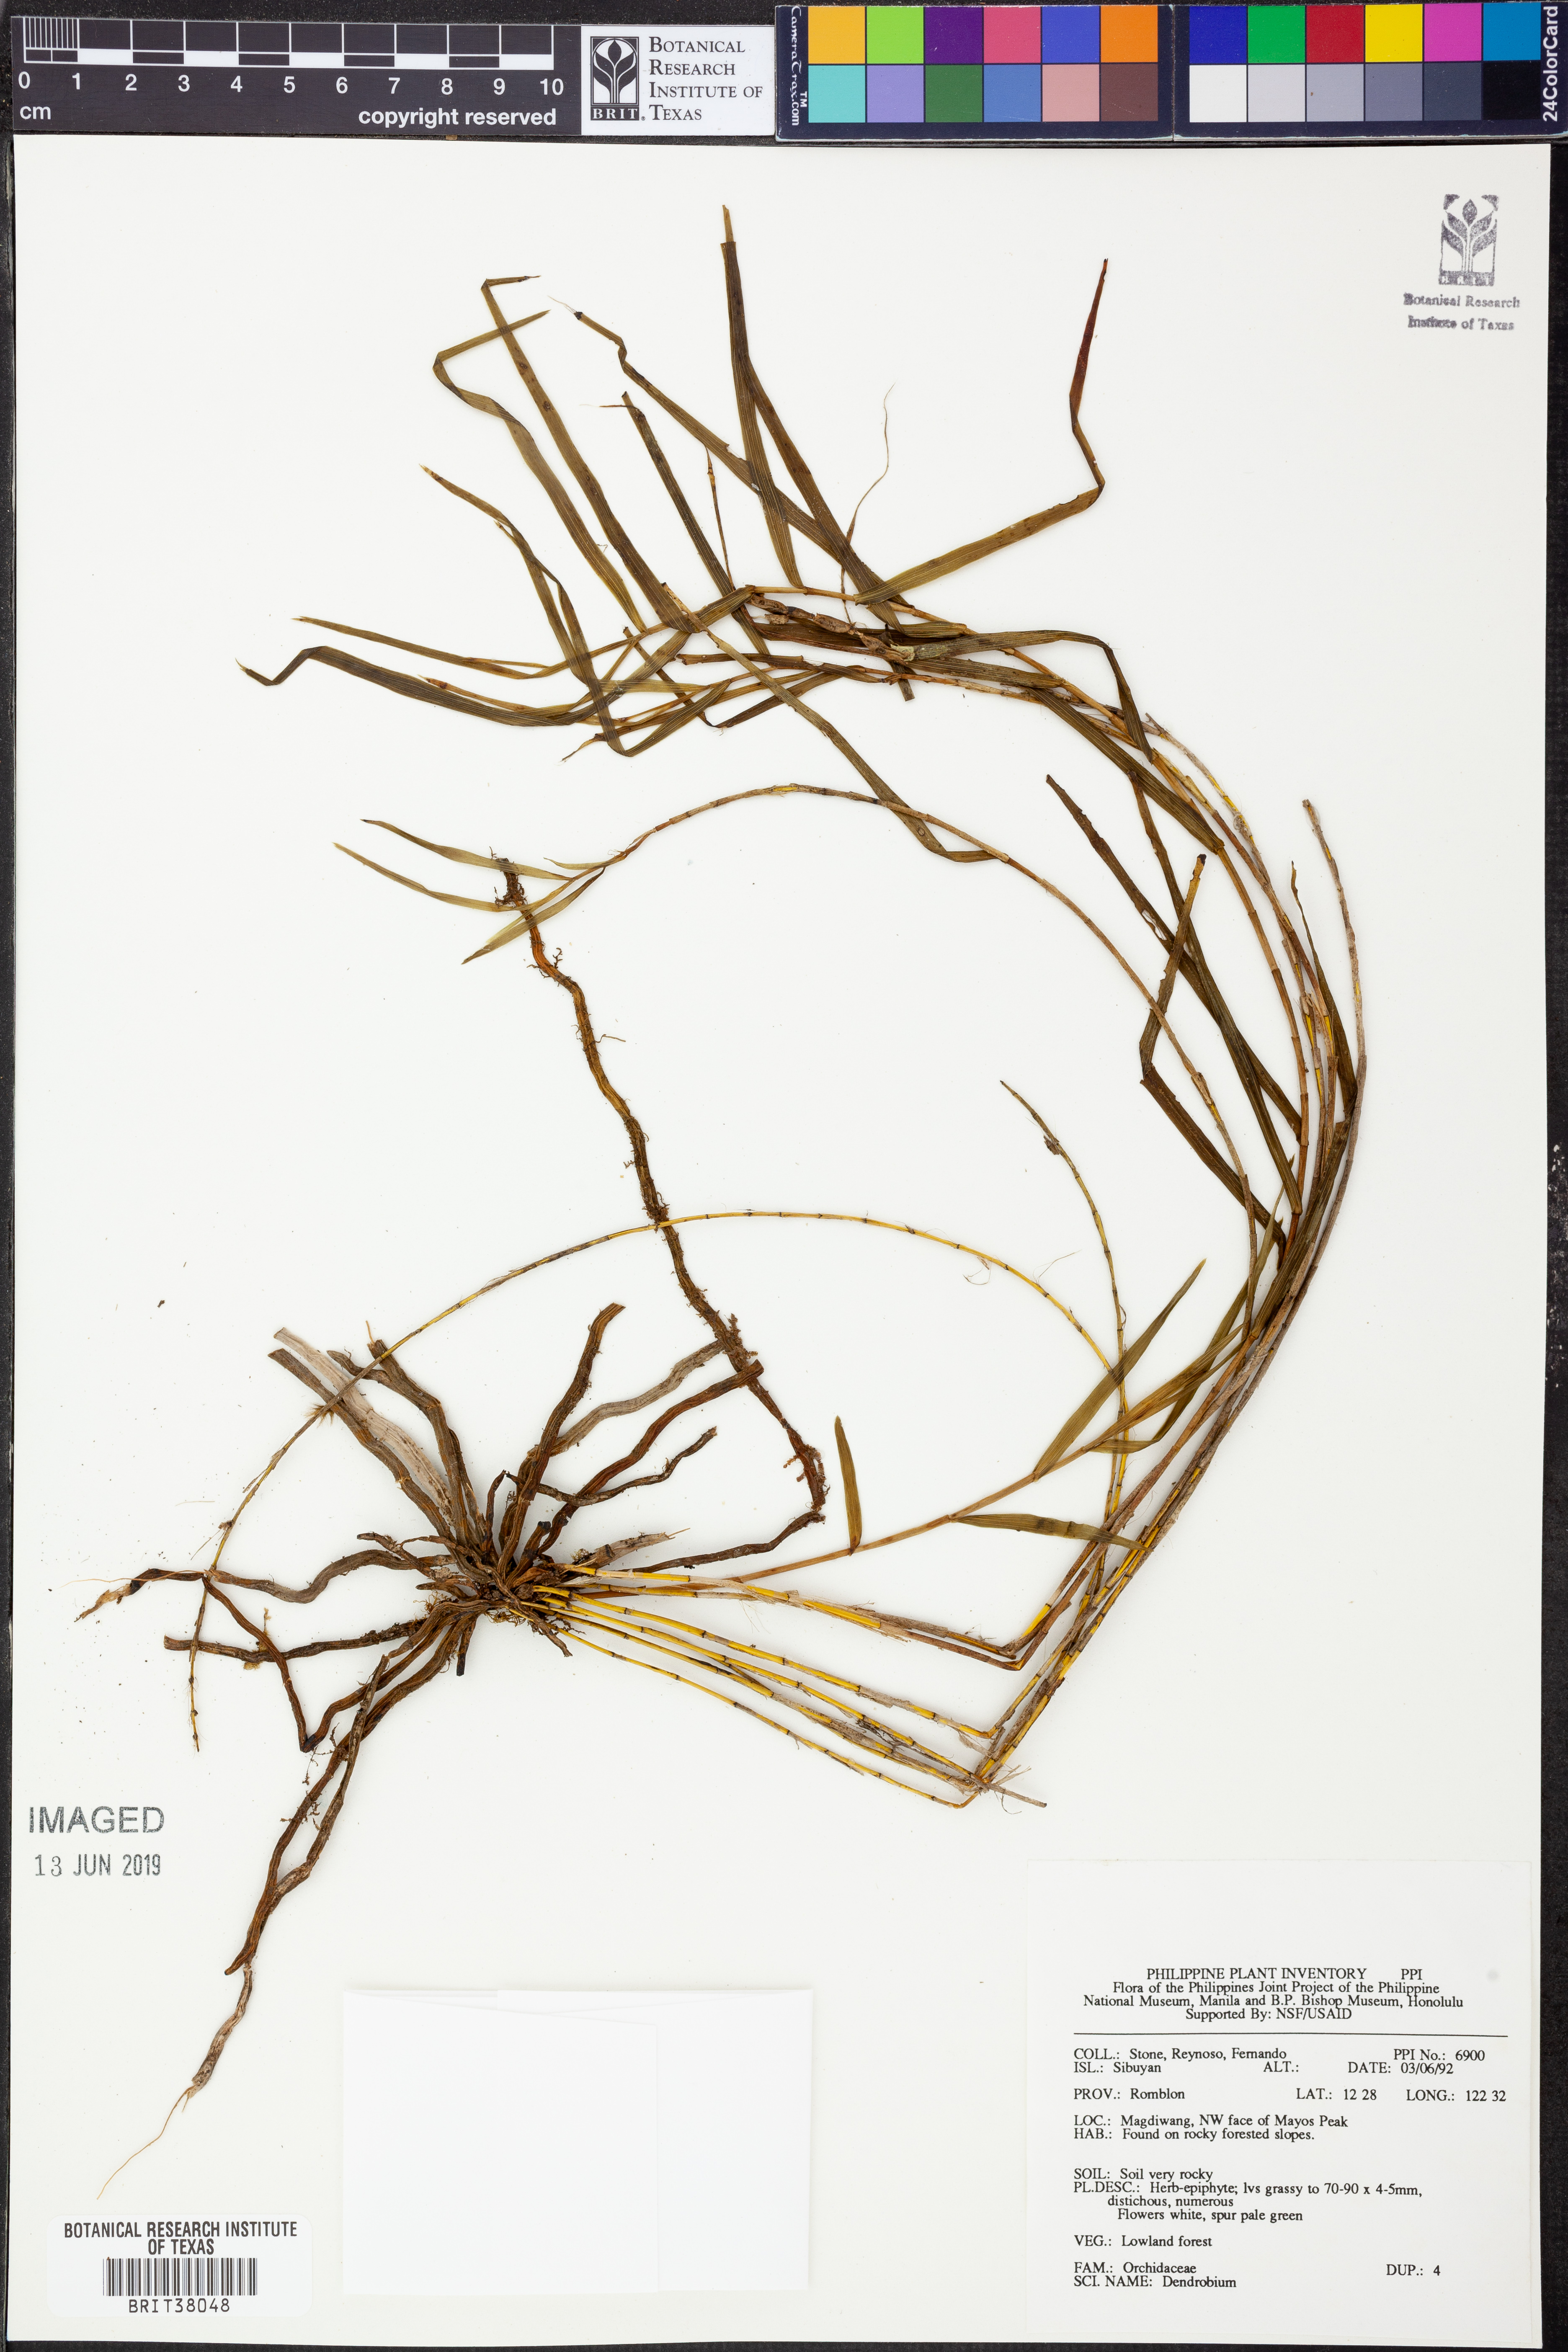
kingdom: Plantae
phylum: Tracheophyta
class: Liliopsida
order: Asparagales
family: Orchidaceae
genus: Dendrobium
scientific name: Dendrobium
